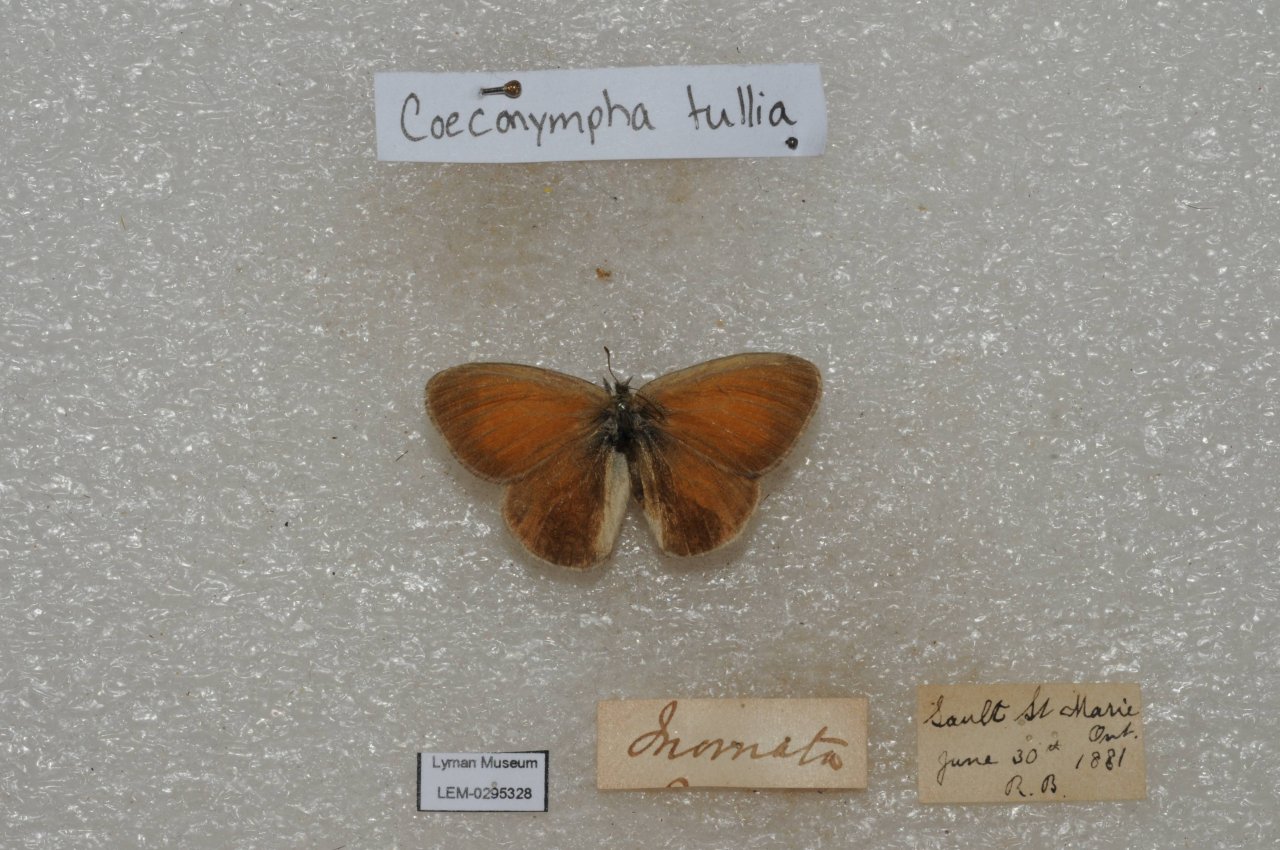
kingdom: Animalia
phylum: Arthropoda
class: Insecta
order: Lepidoptera
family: Nymphalidae
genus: Coenonympha
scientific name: Coenonympha tullia
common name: Large Heath
